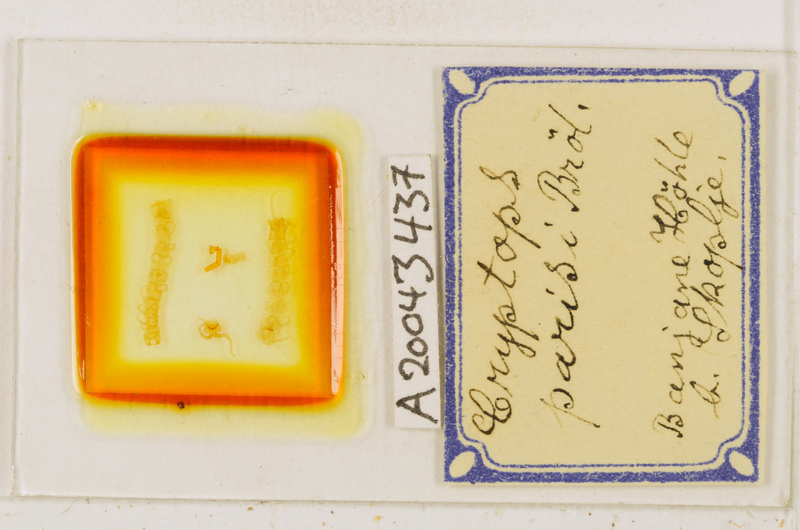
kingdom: Animalia
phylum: Arthropoda
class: Chilopoda
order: Scolopendromorpha
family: Cryptopidae
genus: Cryptops
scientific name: Cryptops parisi
